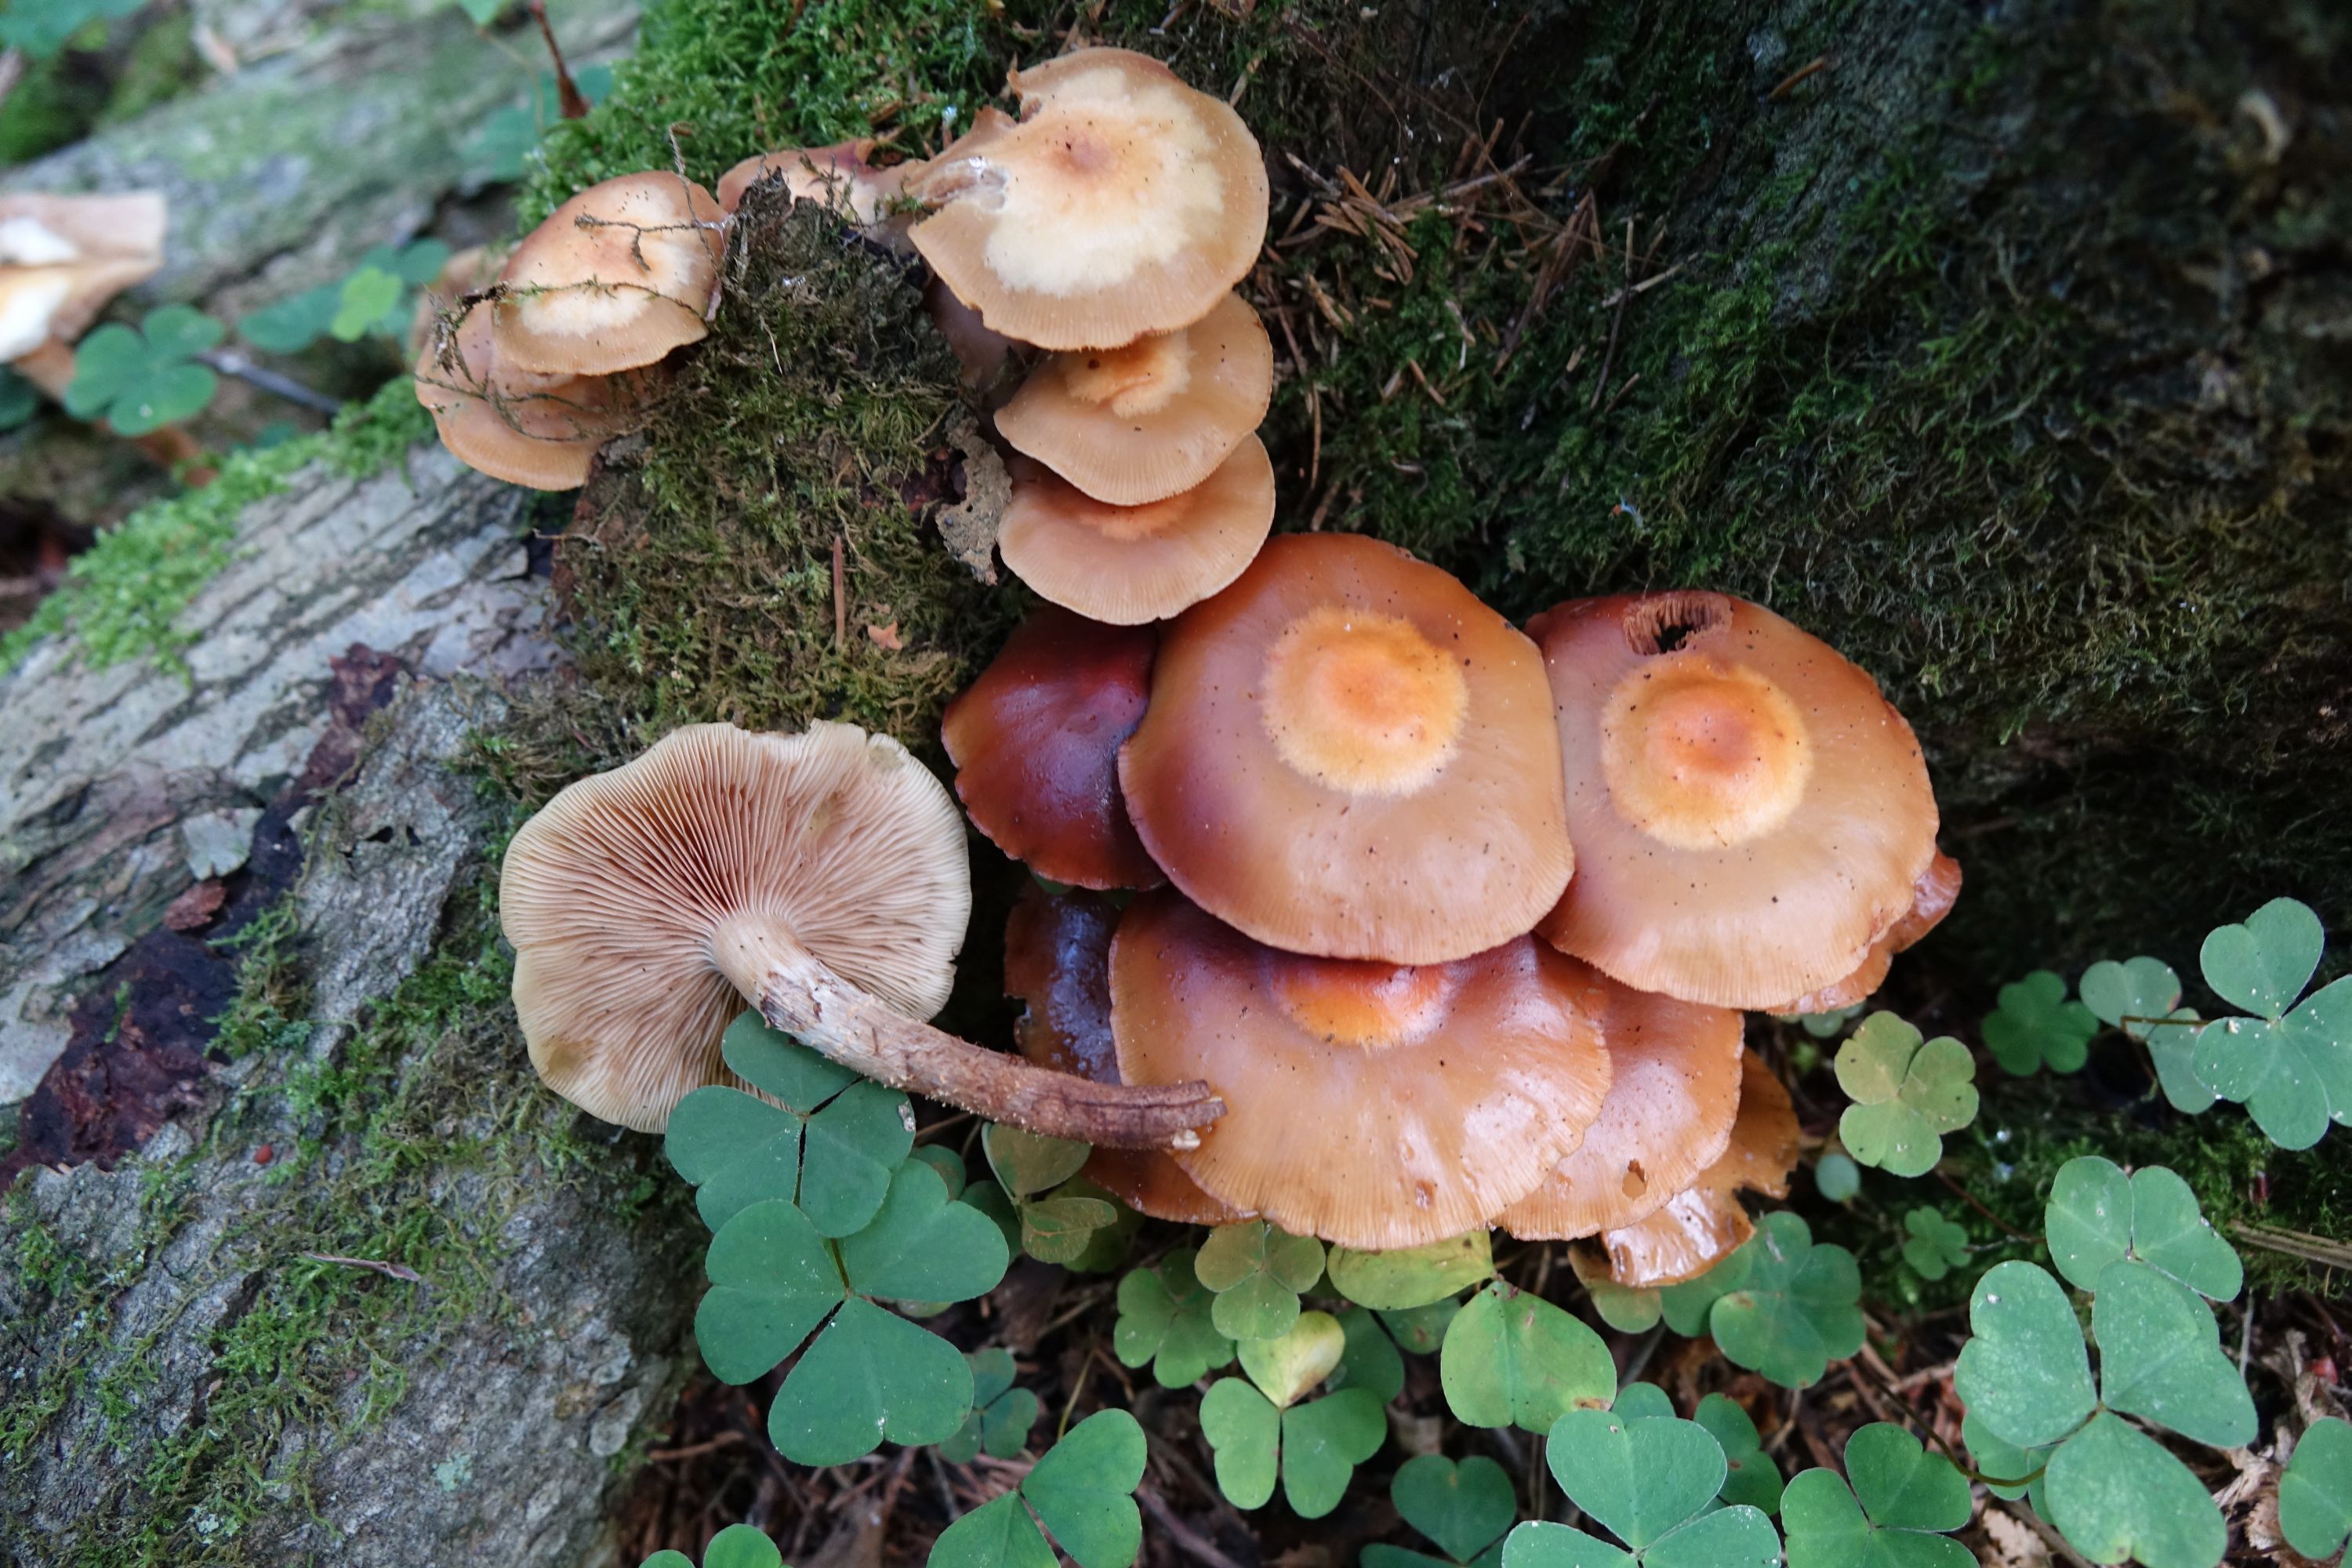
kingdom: Fungi
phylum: Basidiomycota
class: Agaricomycetes
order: Agaricales
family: Strophariaceae
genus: Kuehneromyces
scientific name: Kuehneromyces mutabilis
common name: Sheathed woodtuft
